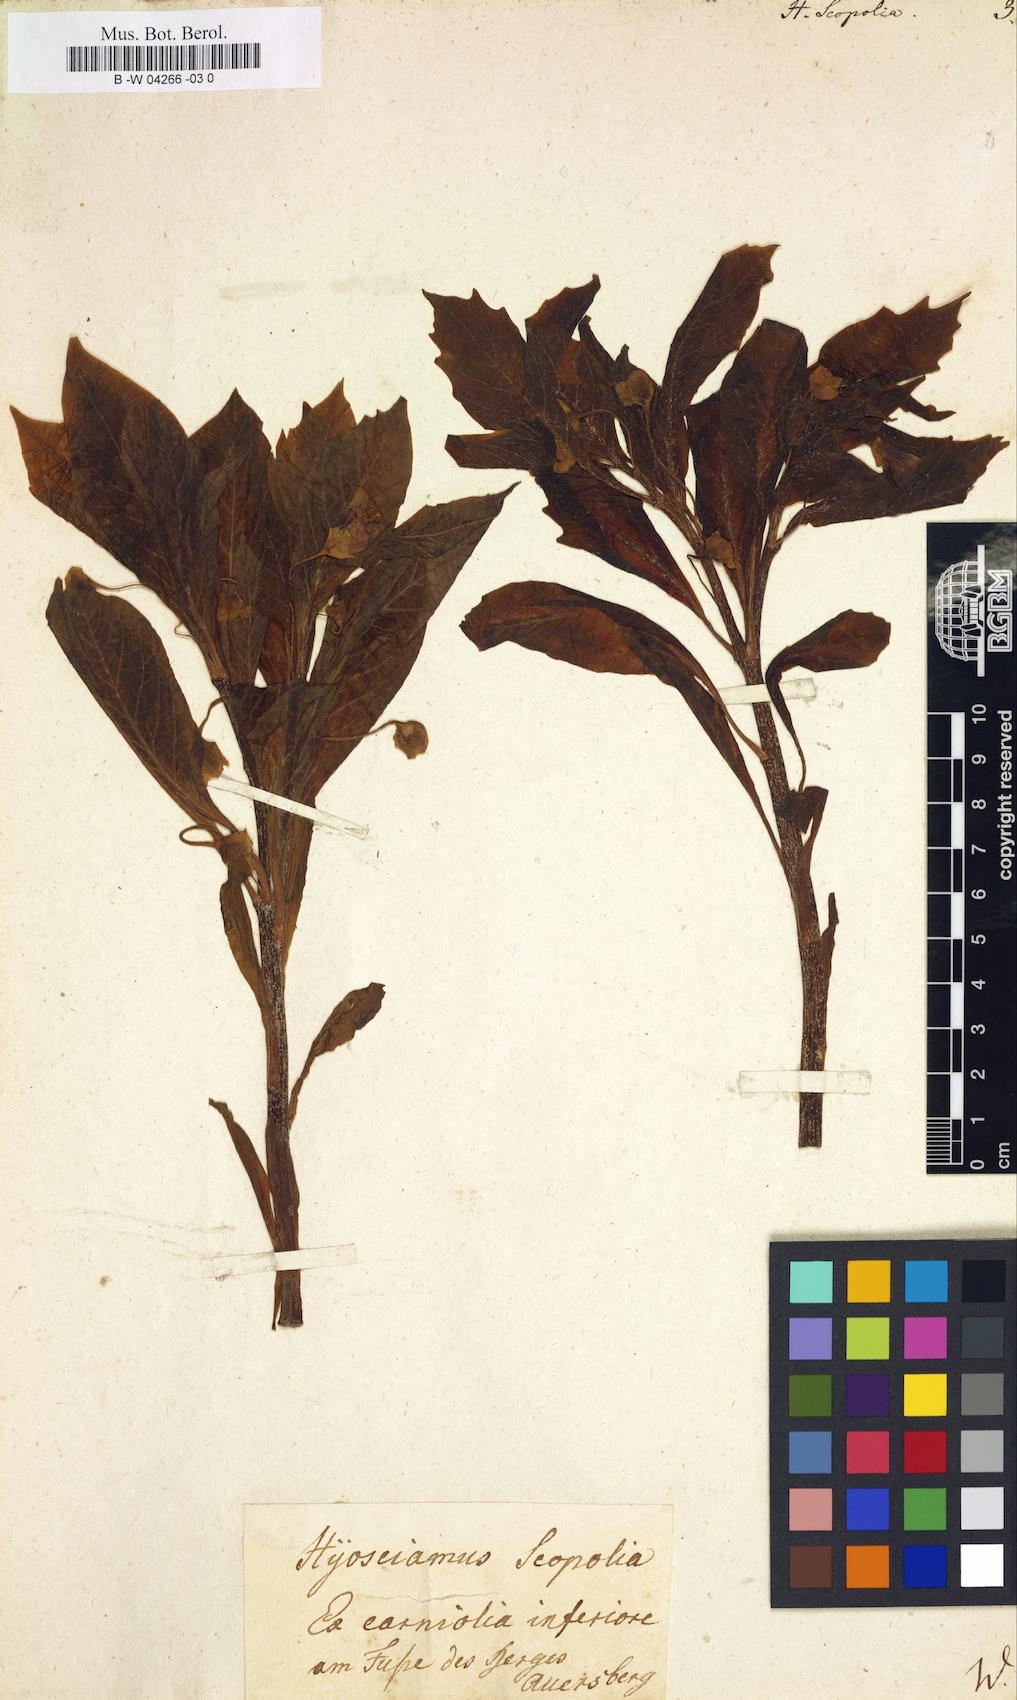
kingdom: Plantae
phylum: Tracheophyta
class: Magnoliopsida
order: Solanales
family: Solanaceae
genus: Scopolia
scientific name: Scopolia carniolica
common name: Scopolia
